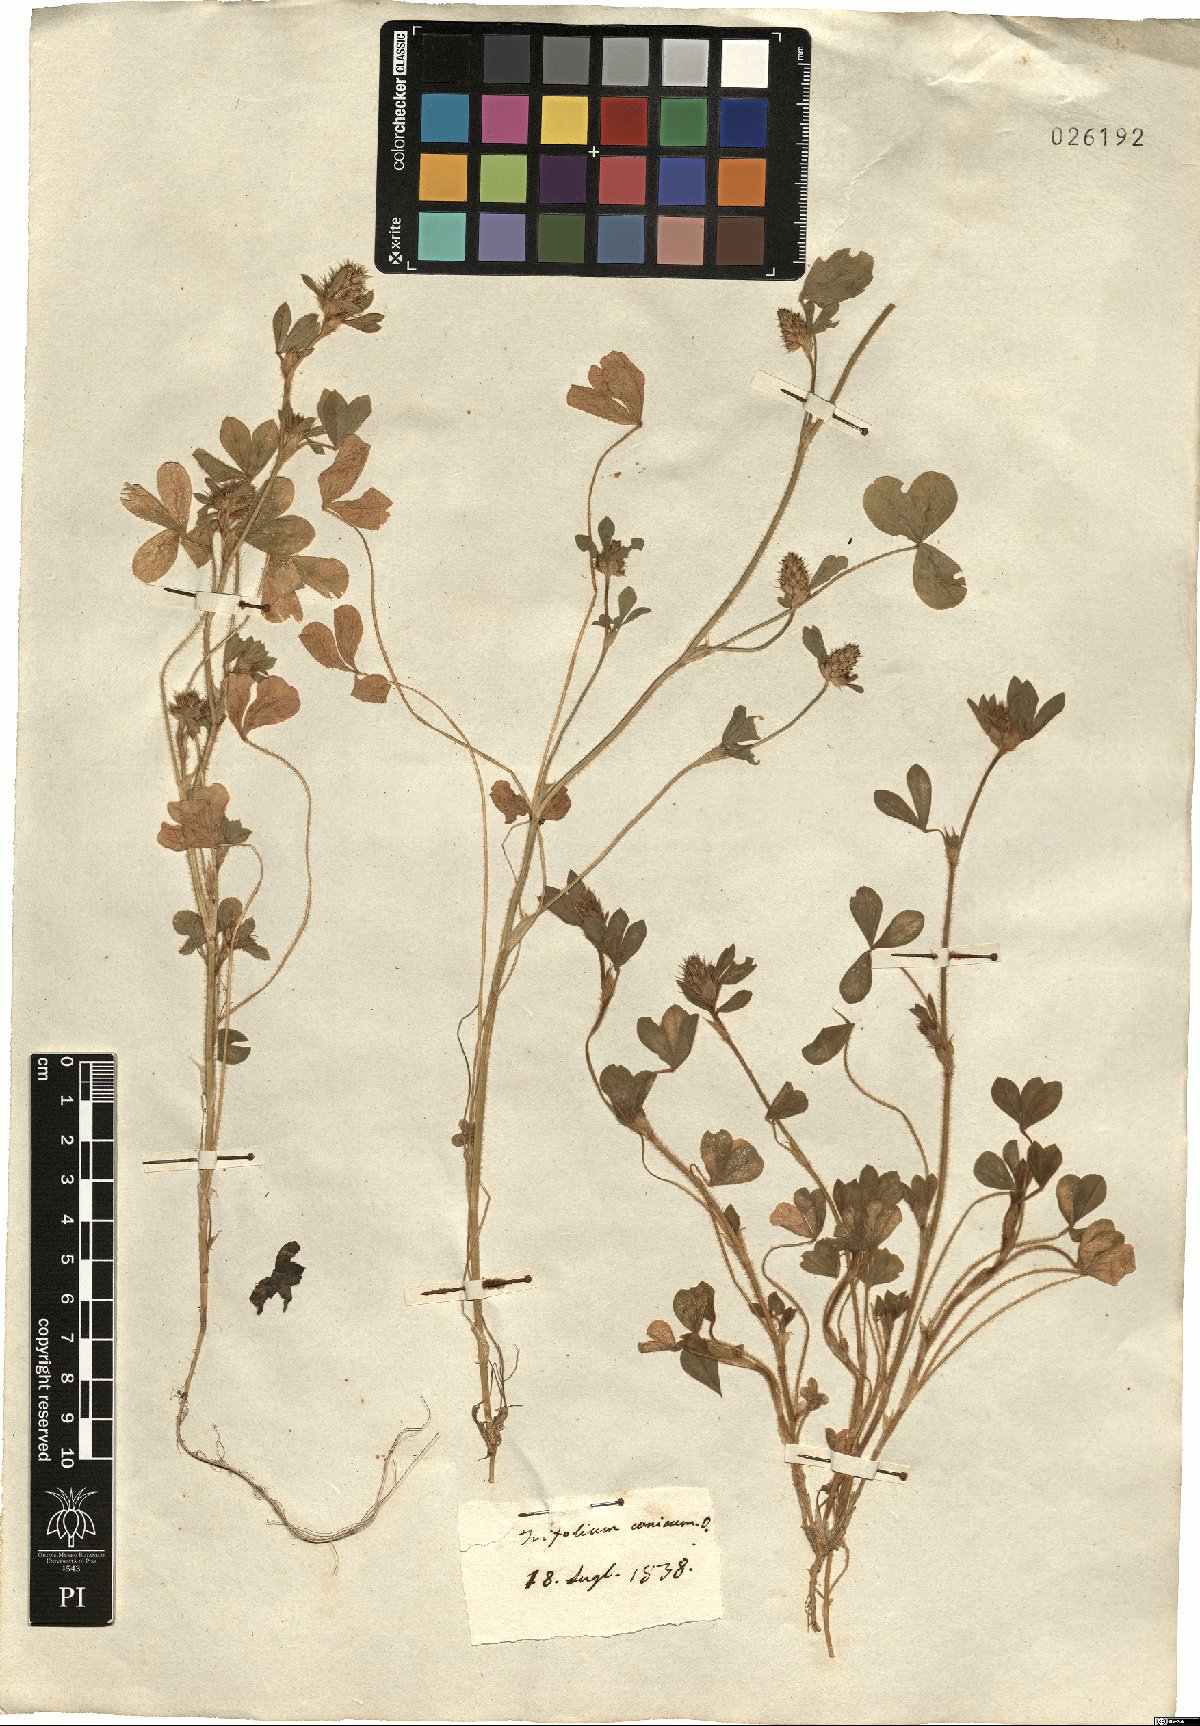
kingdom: Plantae
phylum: Tracheophyta
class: Magnoliopsida
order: Fabales
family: Fabaceae
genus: Trifolium
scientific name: Trifolium striatum
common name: Knotted clover
